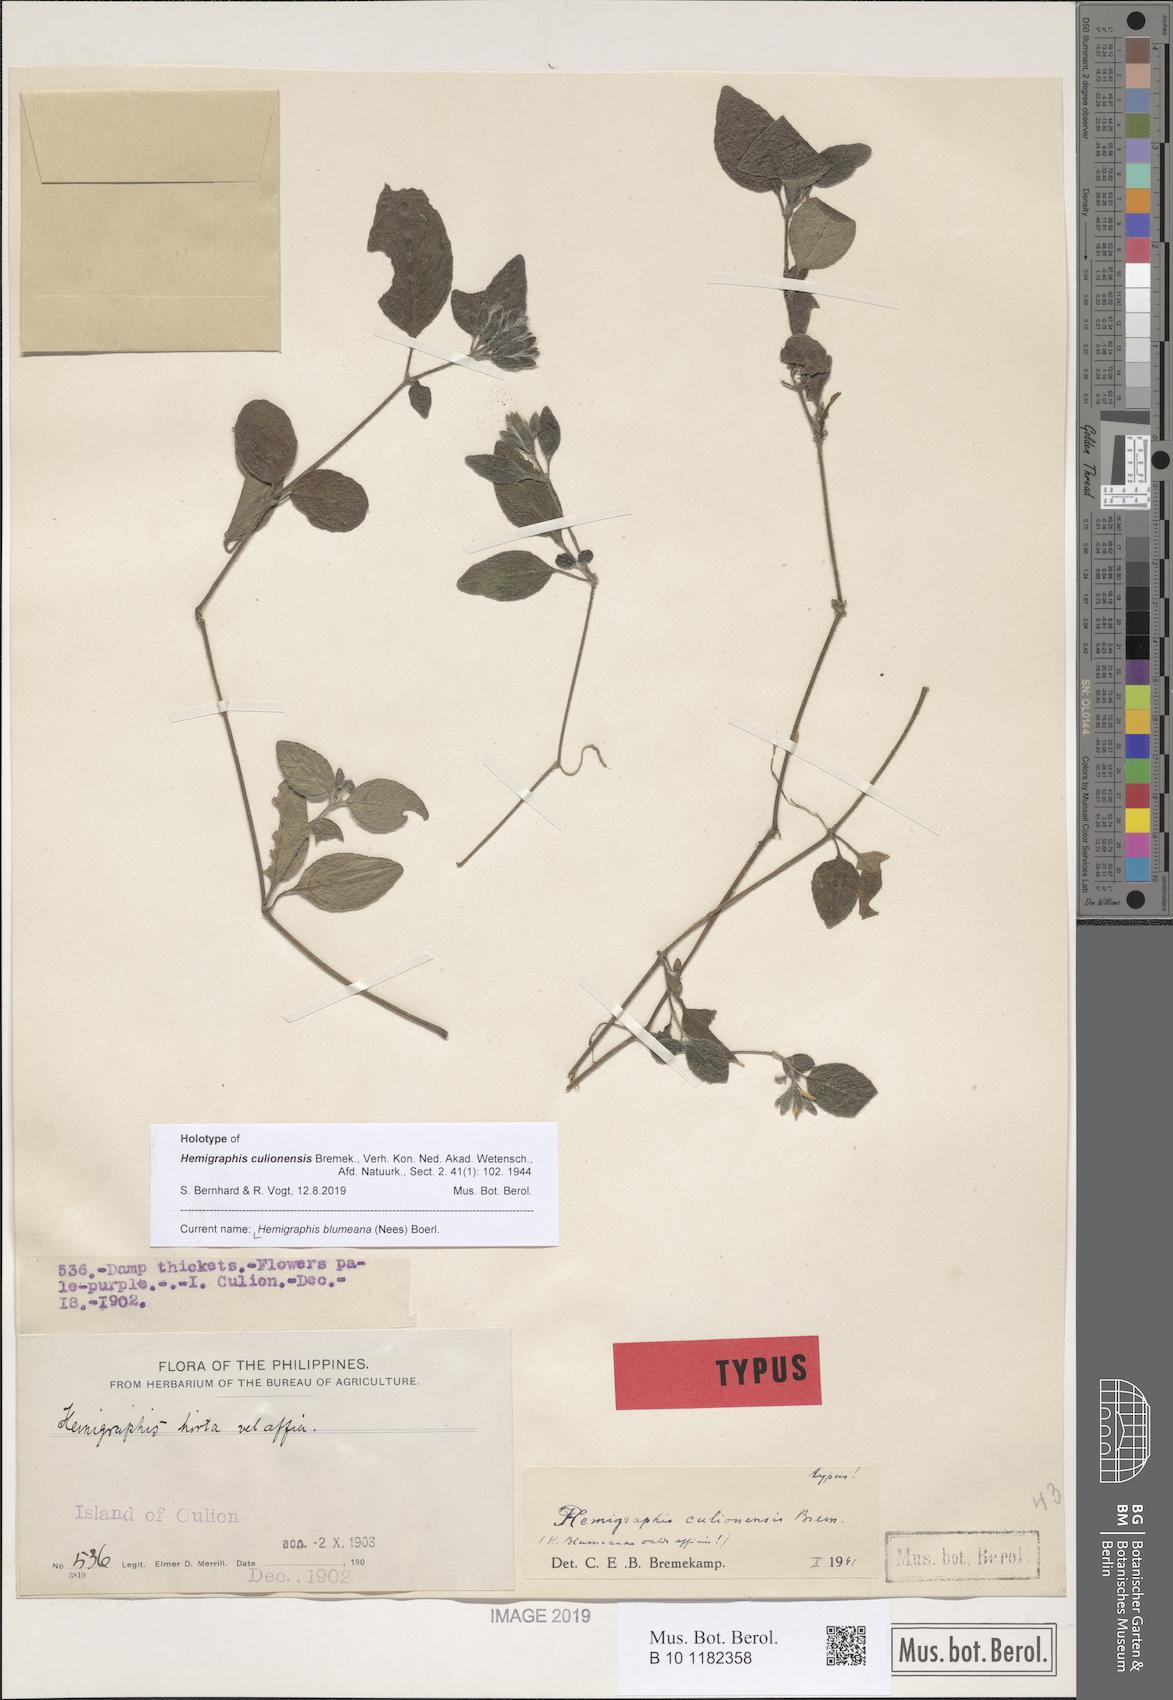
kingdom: Plantae
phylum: Tracheophyta
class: Magnoliopsida
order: Lamiales
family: Acanthaceae
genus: Strobilanthes
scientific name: Strobilanthes blumeana
